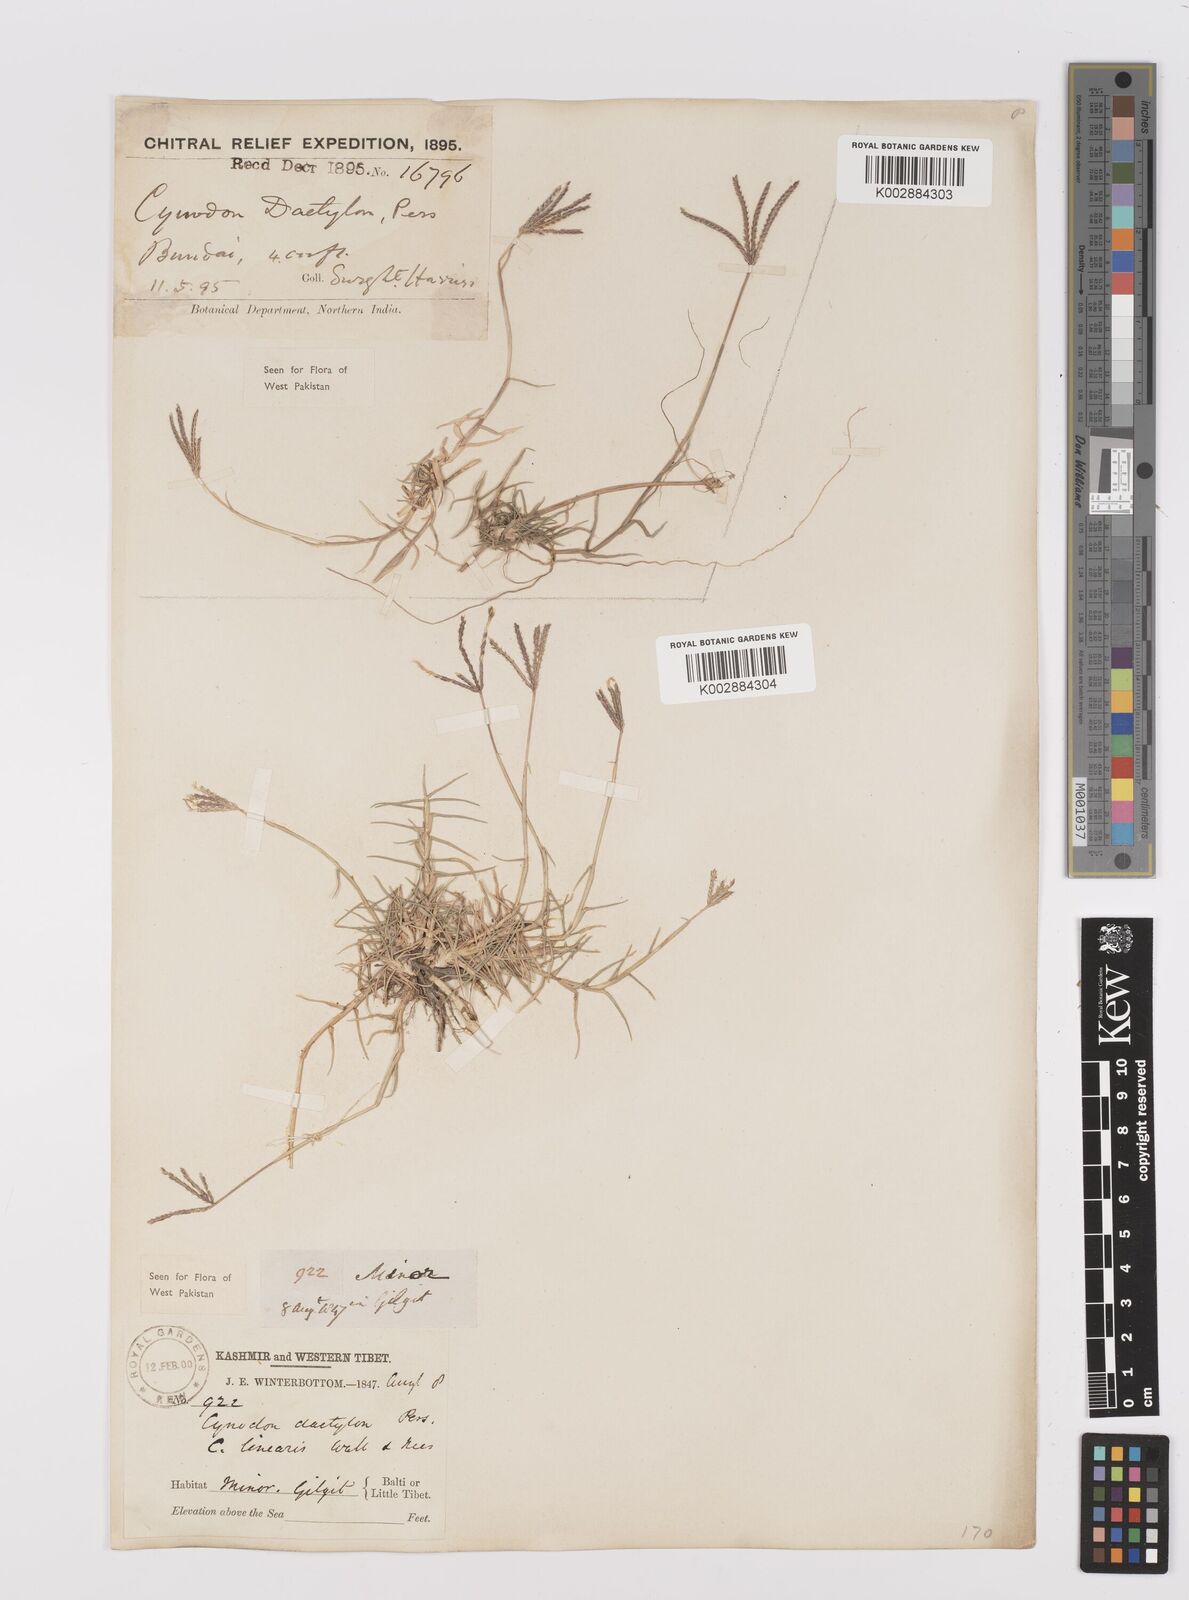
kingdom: Plantae
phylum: Tracheophyta
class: Liliopsida
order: Poales
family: Poaceae
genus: Cynodon
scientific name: Cynodon dactylon
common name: Bermuda grass
